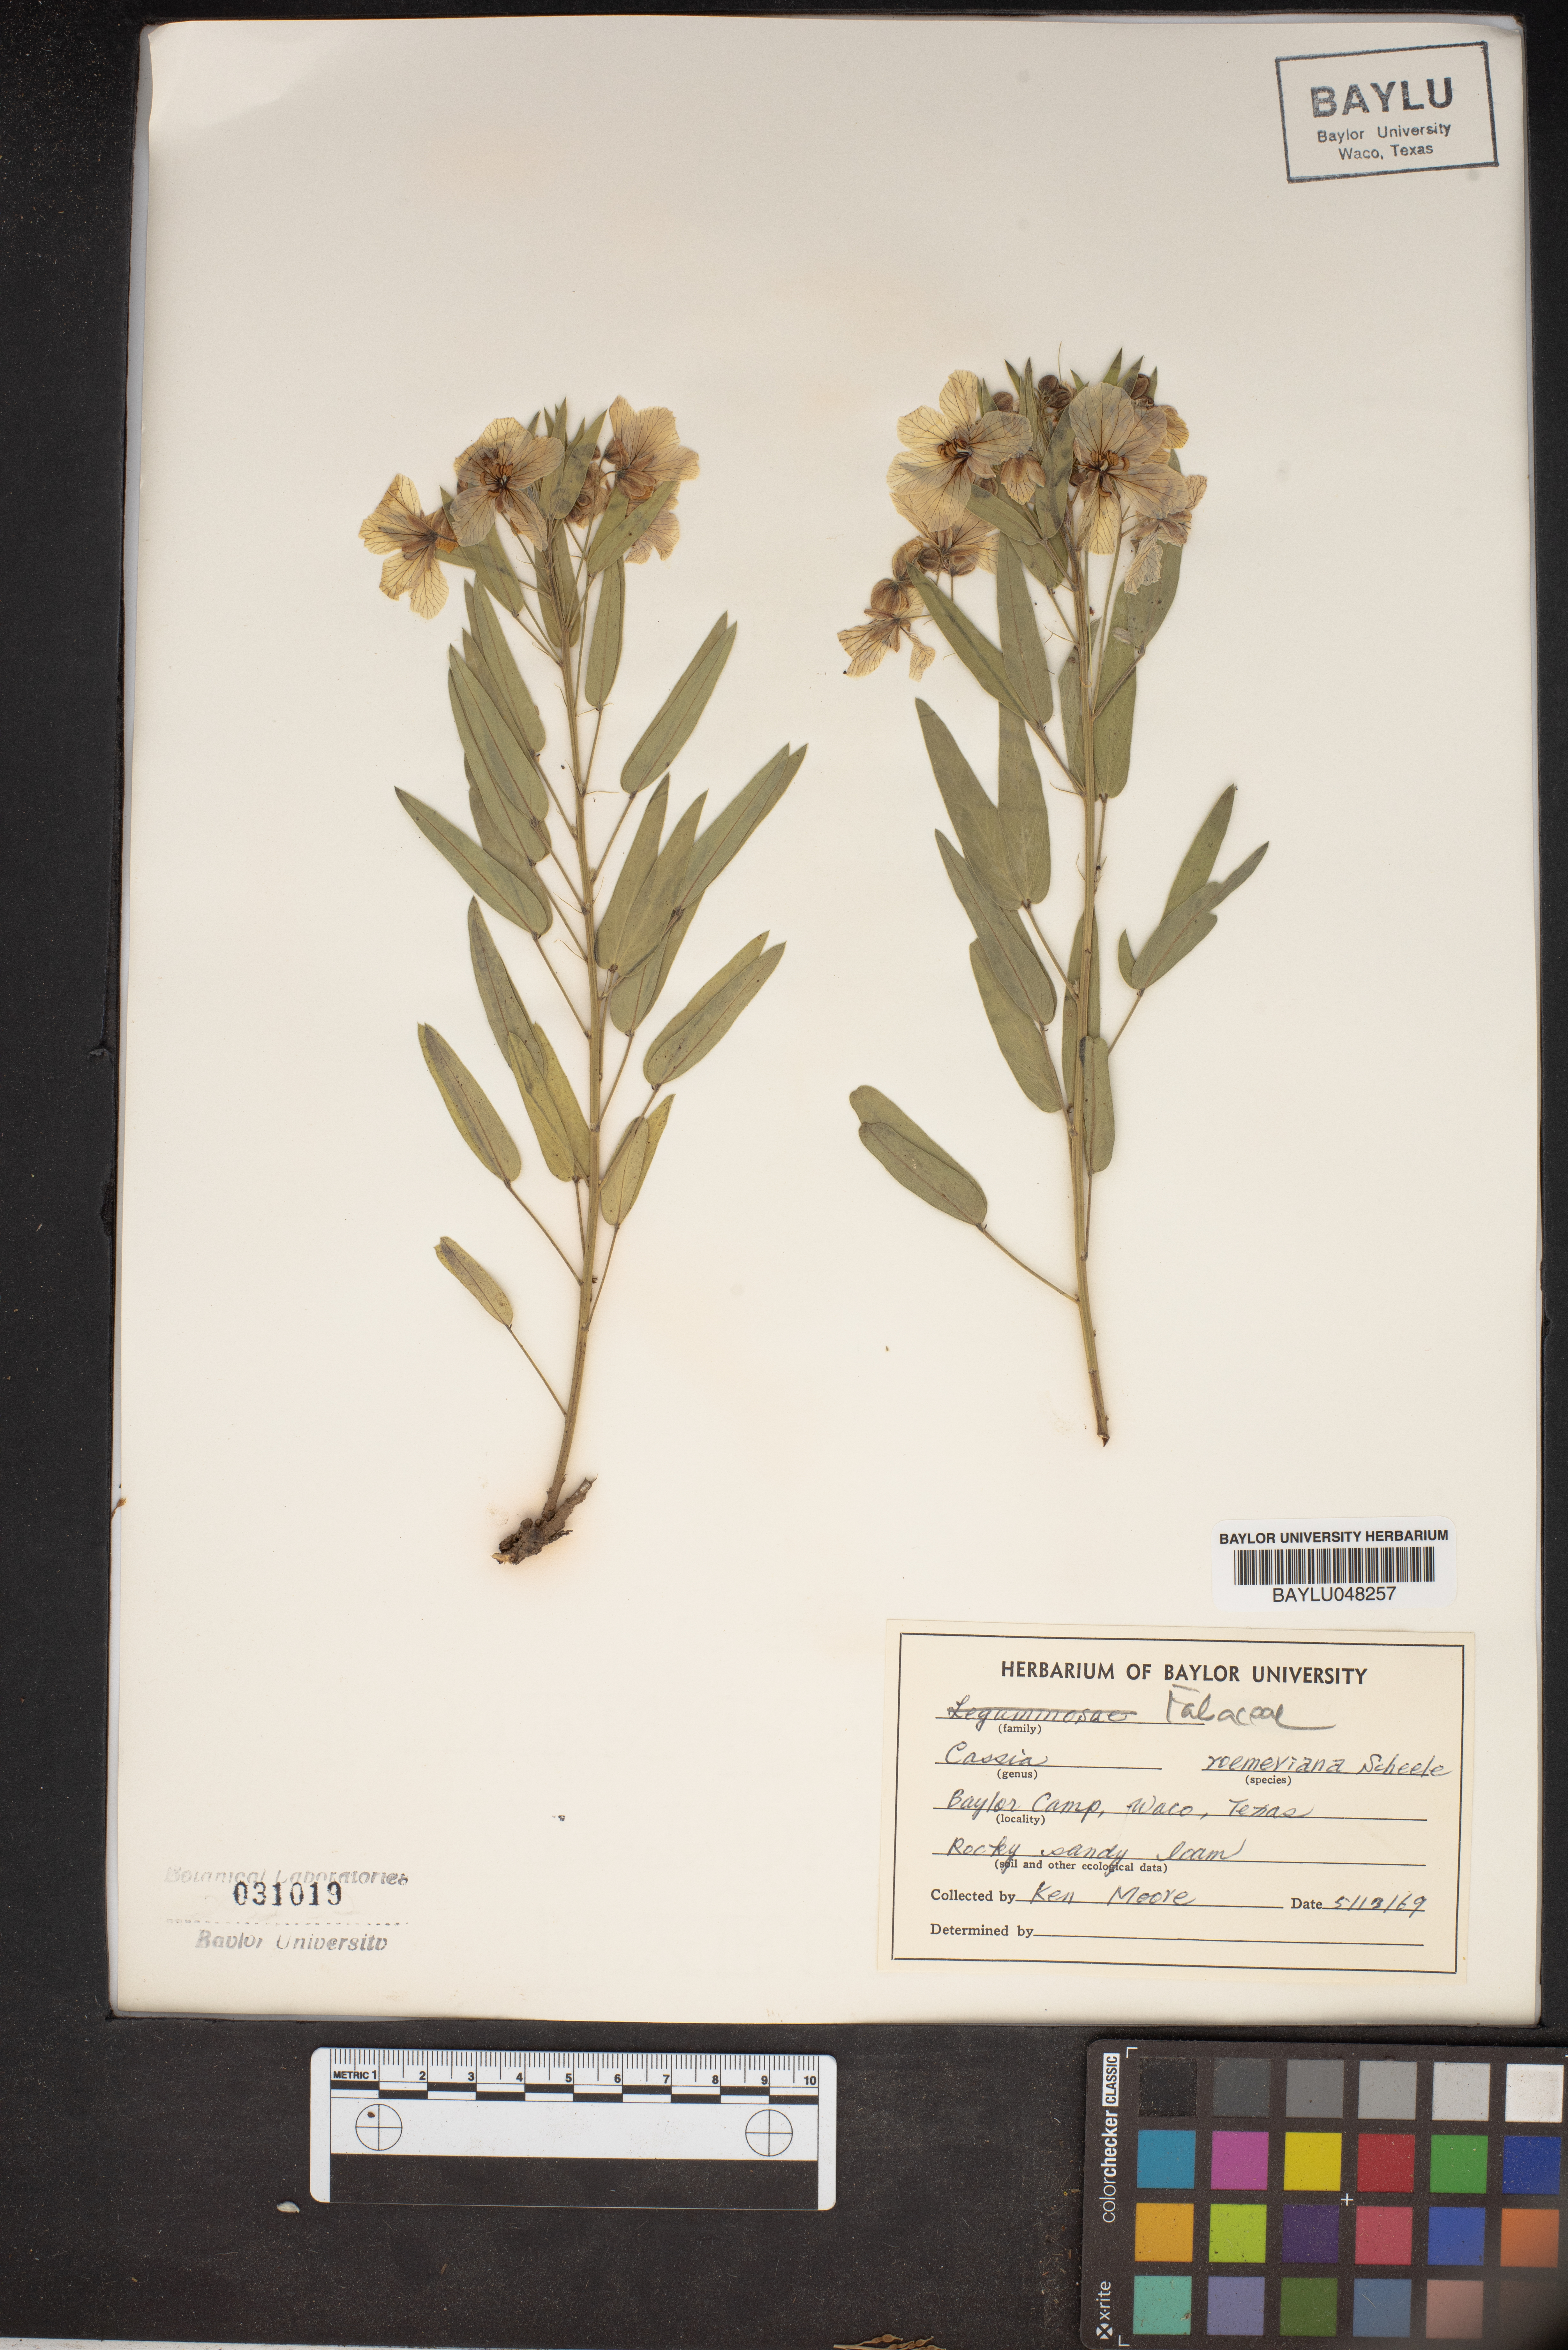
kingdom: Plantae
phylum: Tracheophyta
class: Magnoliopsida
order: Fabales
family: Fabaceae
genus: Senna
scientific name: Senna roemeriana
